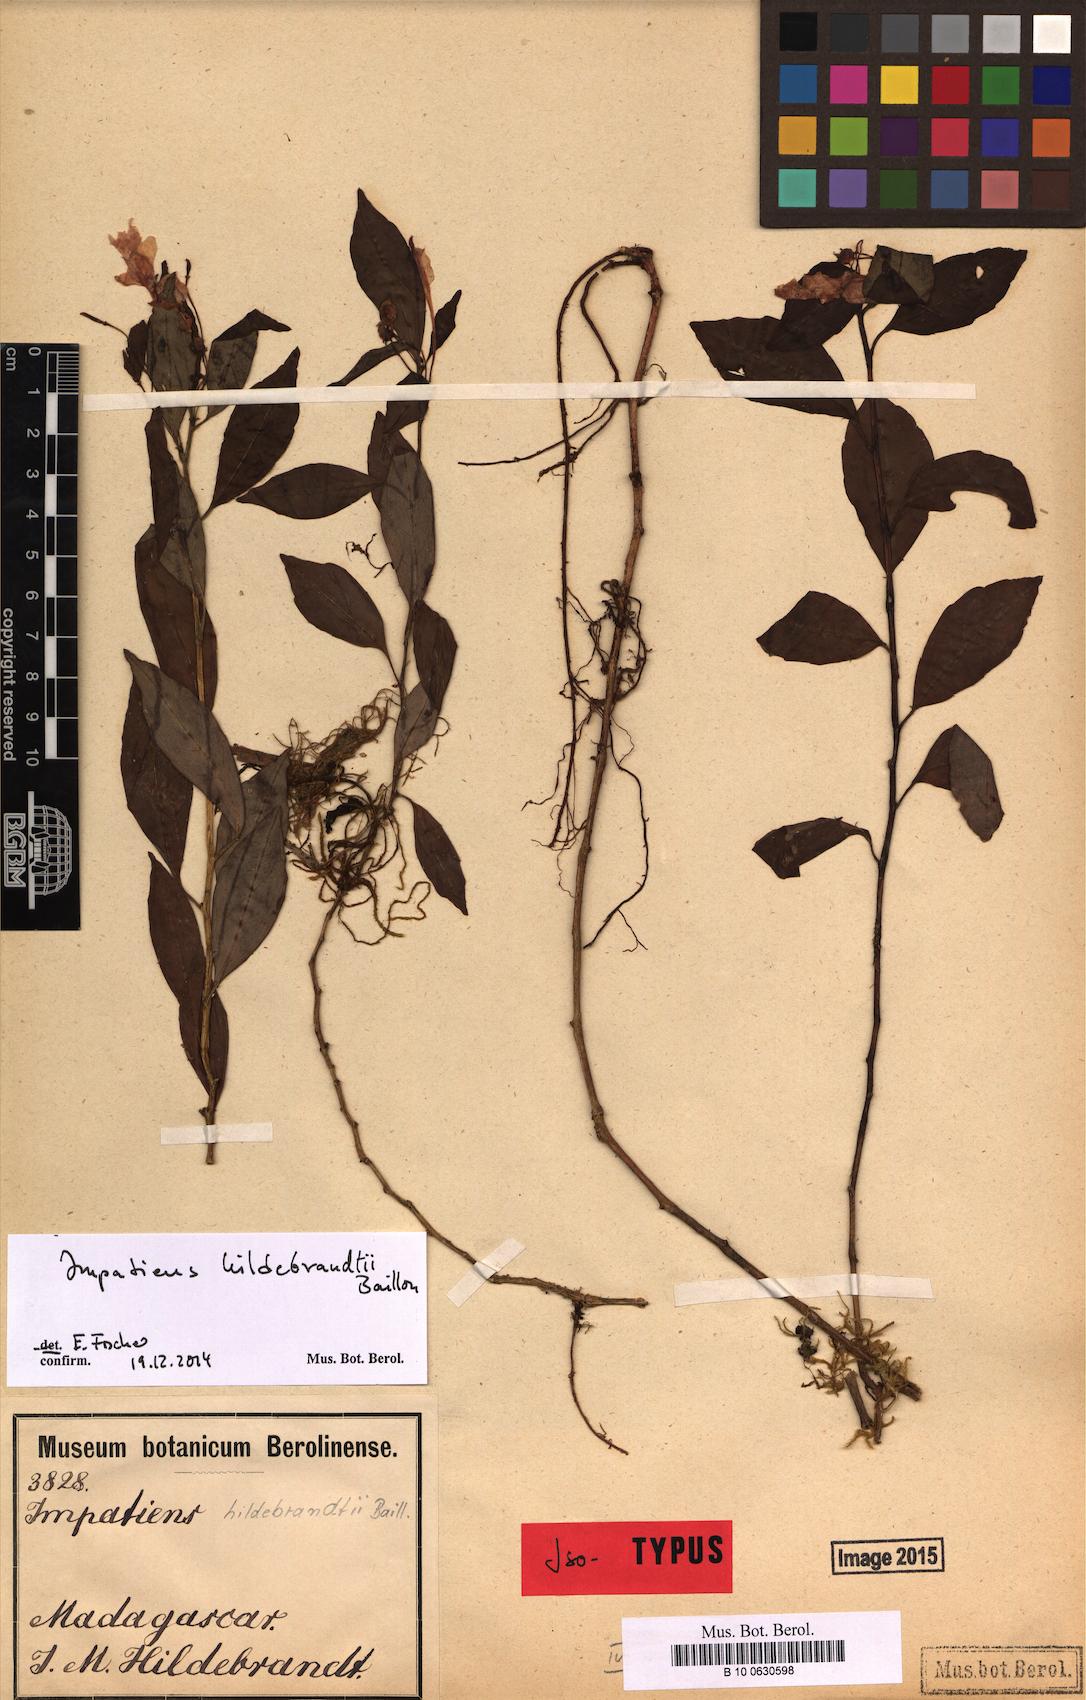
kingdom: Plantae
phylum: Tracheophyta
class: Magnoliopsida
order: Ericales
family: Balsaminaceae
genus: Impatiens
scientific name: Impatiens hildebrandtii
